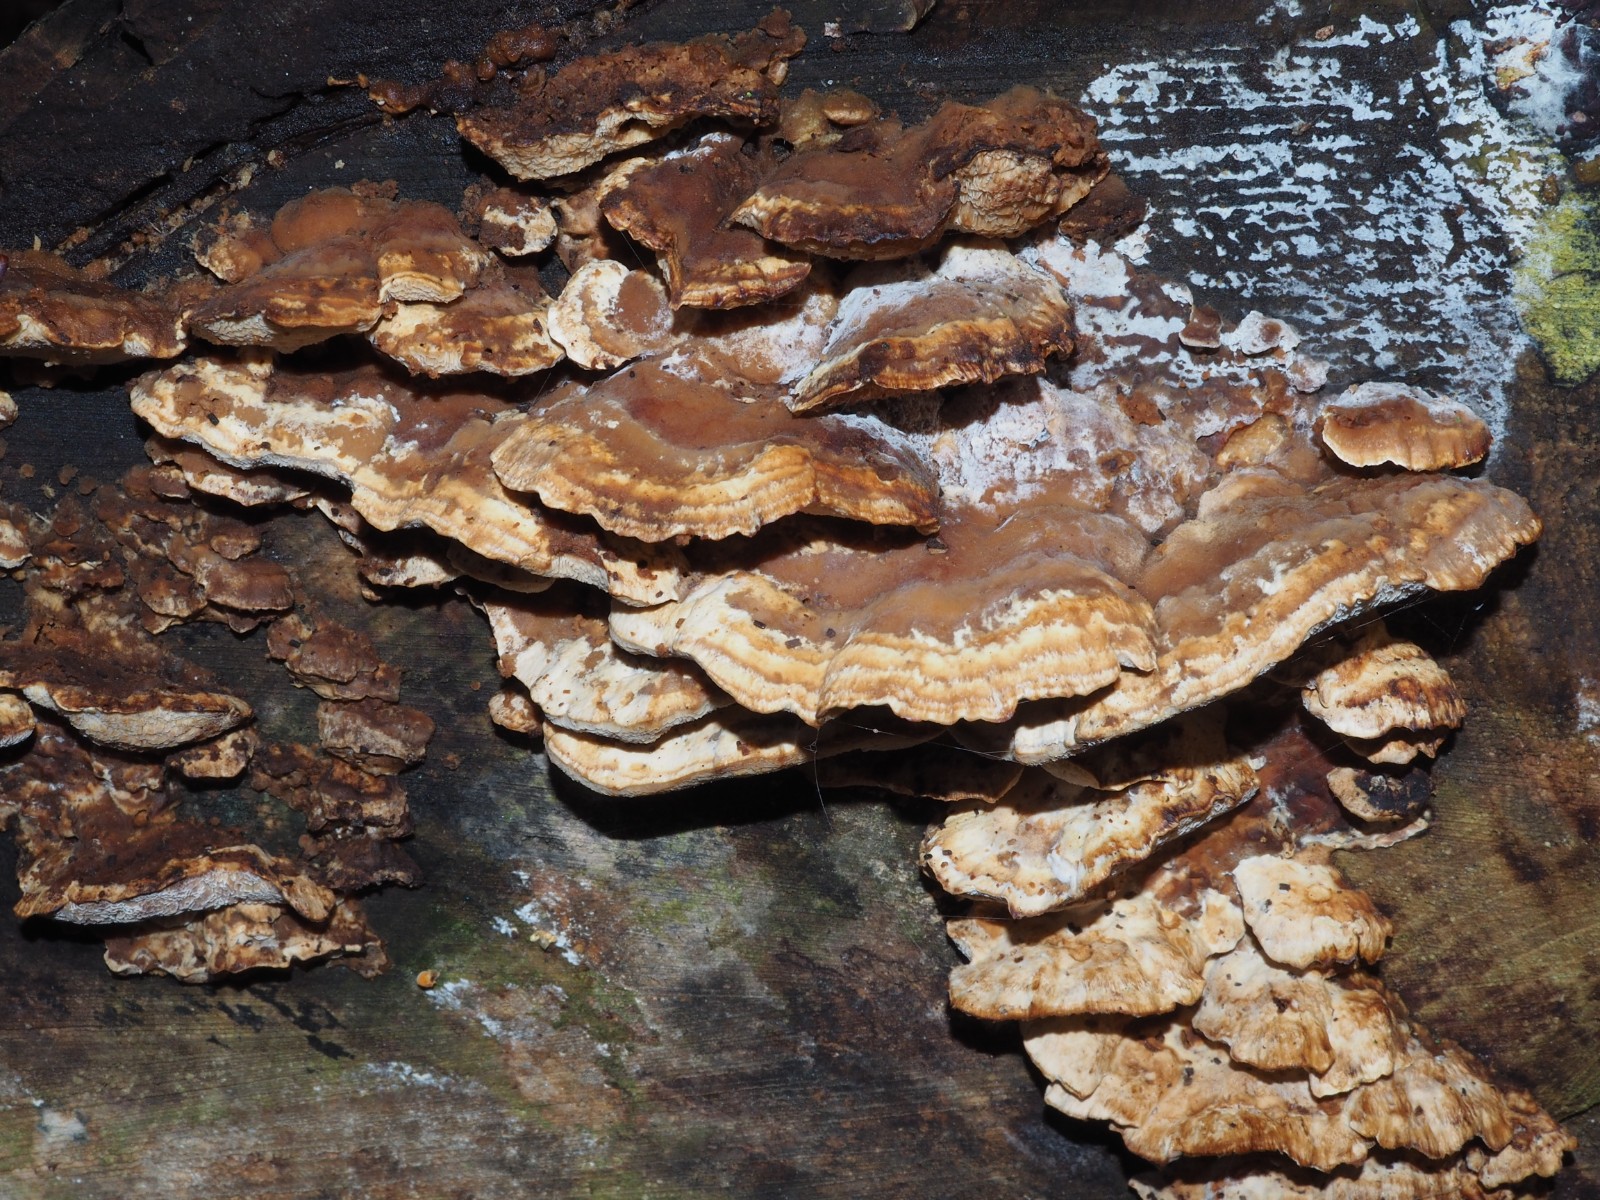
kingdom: Fungi
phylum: Basidiomycota
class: Agaricomycetes
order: Polyporales
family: Phanerochaetaceae
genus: Bjerkandera
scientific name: Bjerkandera fumosa
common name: grågul sodporesvamp
